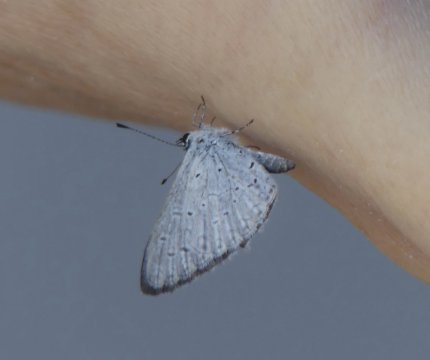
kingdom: Animalia
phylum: Arthropoda
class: Insecta
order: Lepidoptera
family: Lycaenidae
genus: Celastrina
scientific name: Celastrina ladon
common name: Echo Azure
